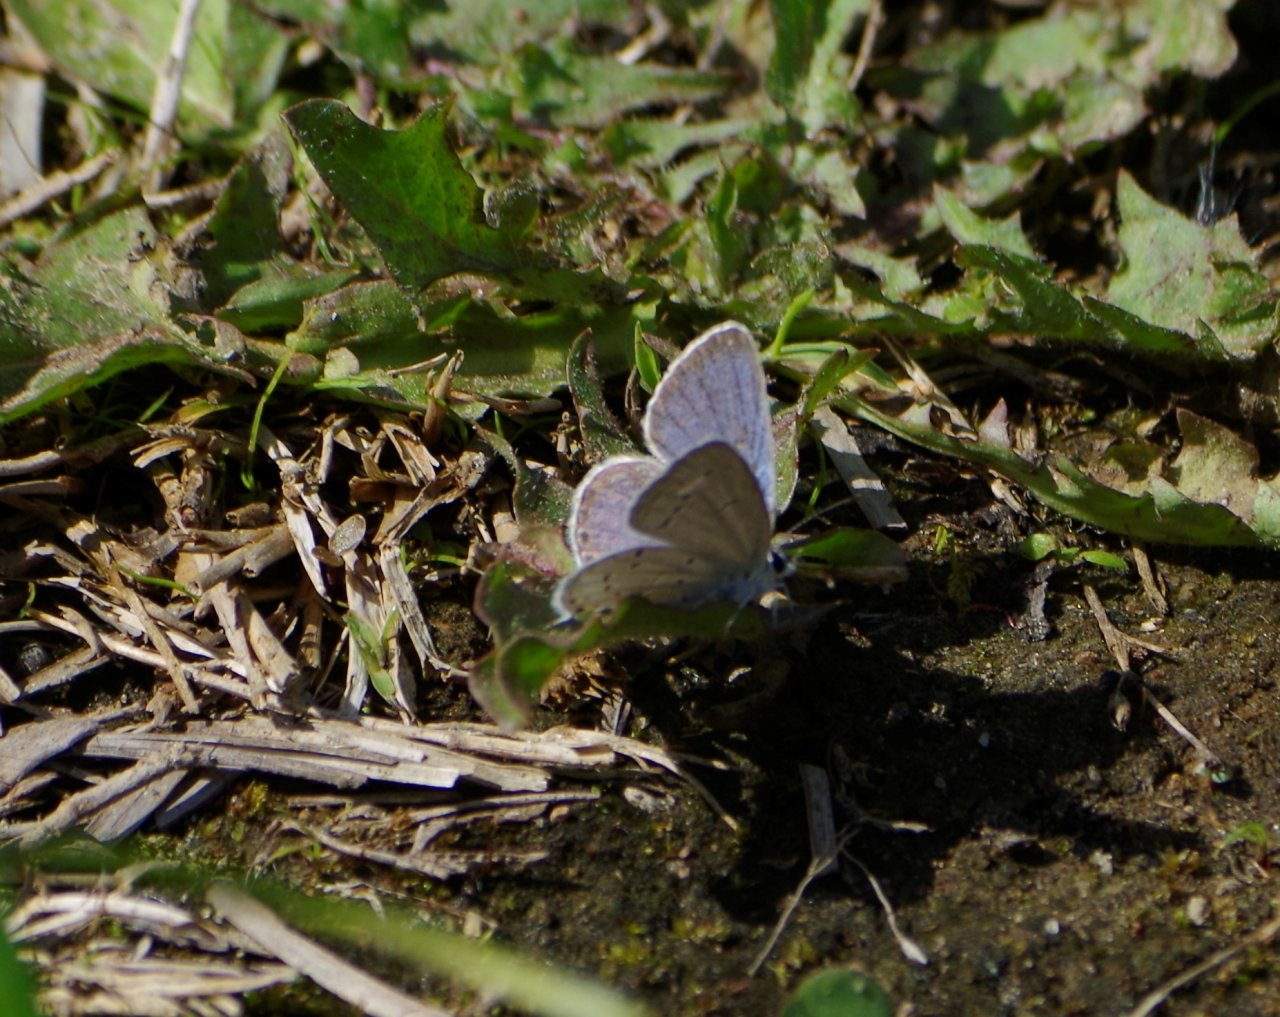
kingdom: Animalia
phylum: Arthropoda
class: Insecta
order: Lepidoptera
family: Lycaenidae
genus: Elkalyce
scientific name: Elkalyce comyntas
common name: Eastern Tailed-Blue
